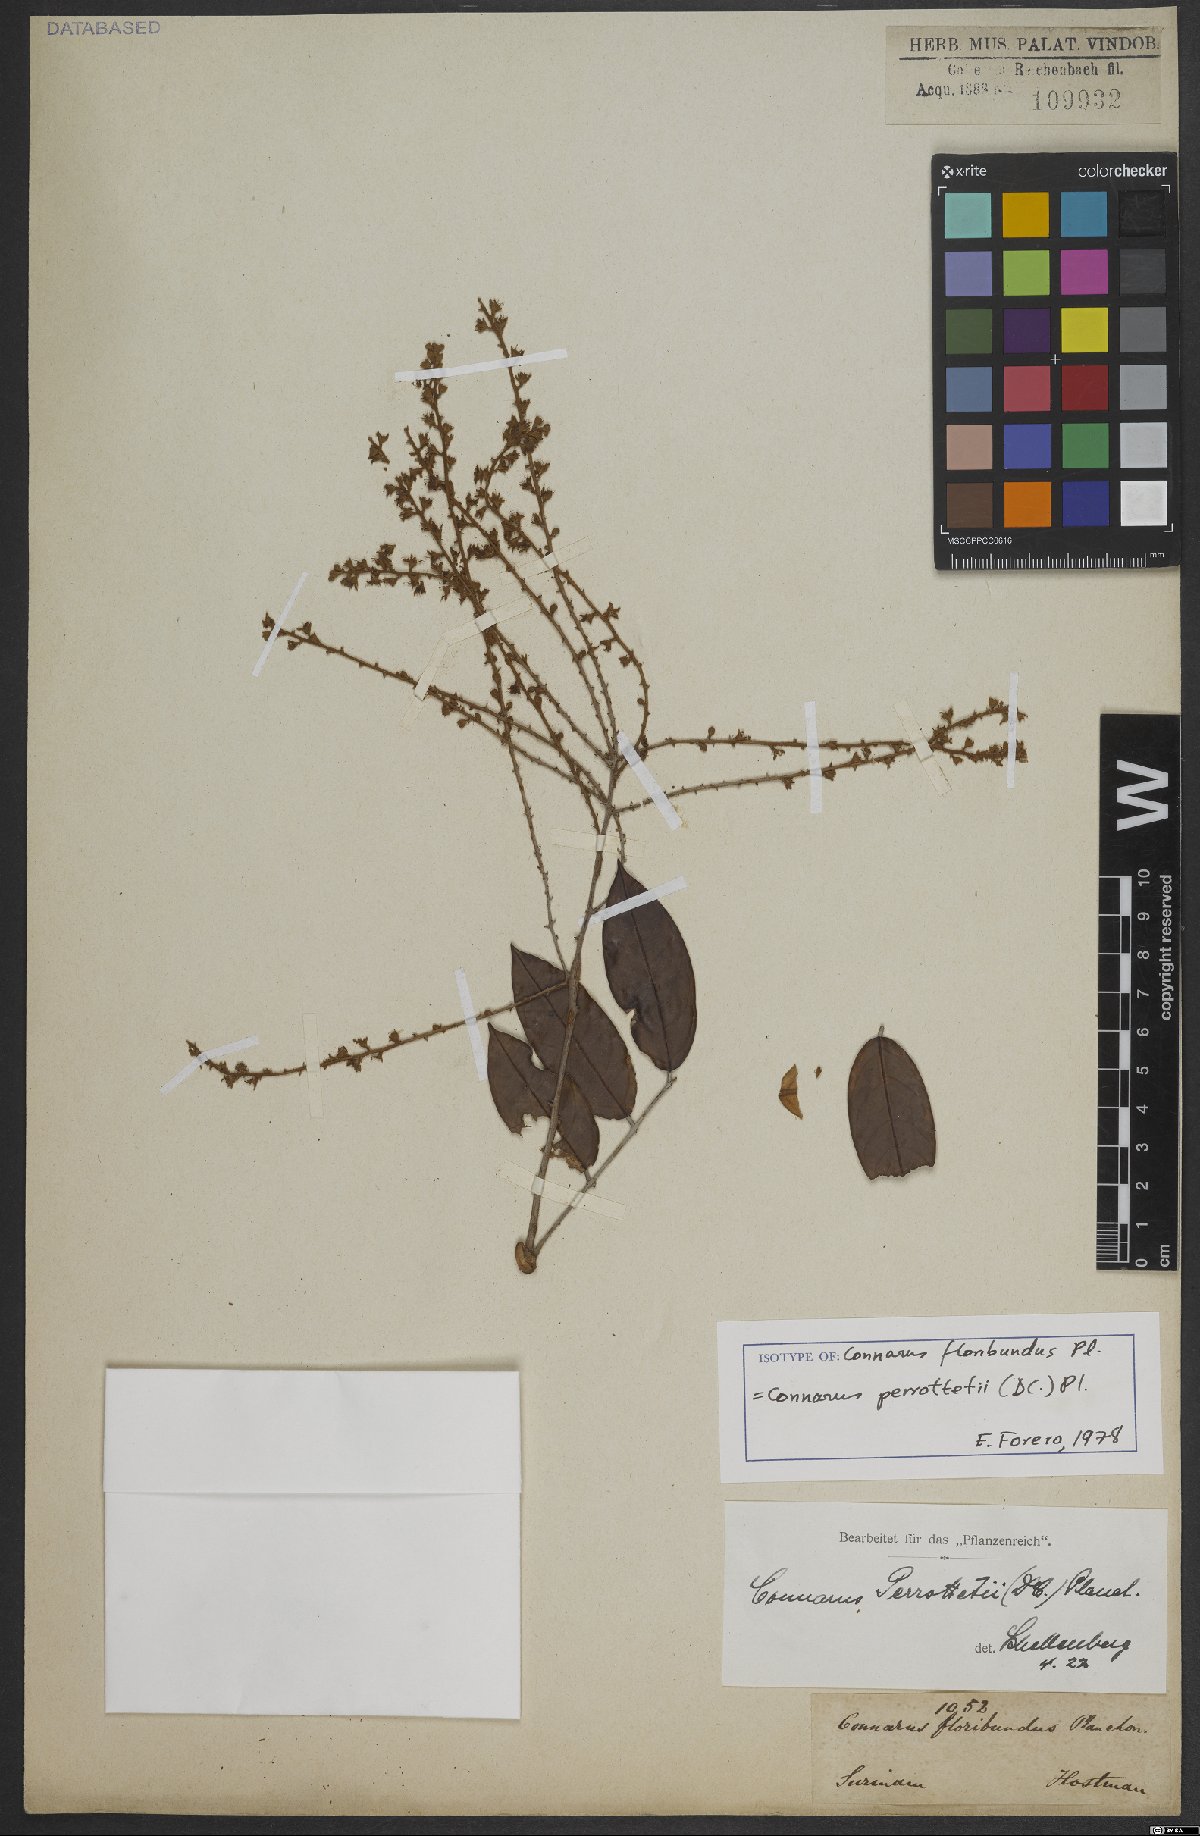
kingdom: Plantae
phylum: Tracheophyta
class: Magnoliopsida
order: Oxalidales
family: Connaraceae
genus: Connarus
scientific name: Connarus perrottetii
